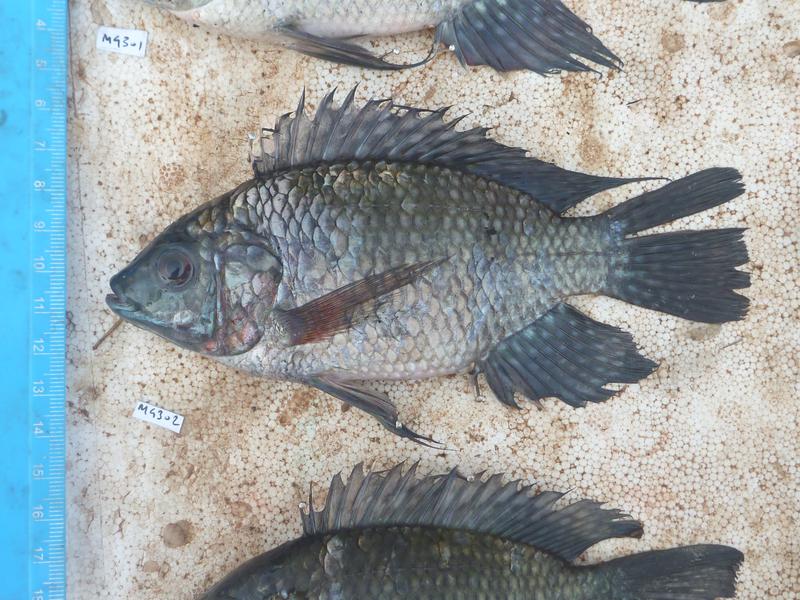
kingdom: Animalia
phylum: Chordata
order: Perciformes
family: Cichlidae
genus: Oreochromis
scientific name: Oreochromis leucostictus
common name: Blue spotted tilapia
